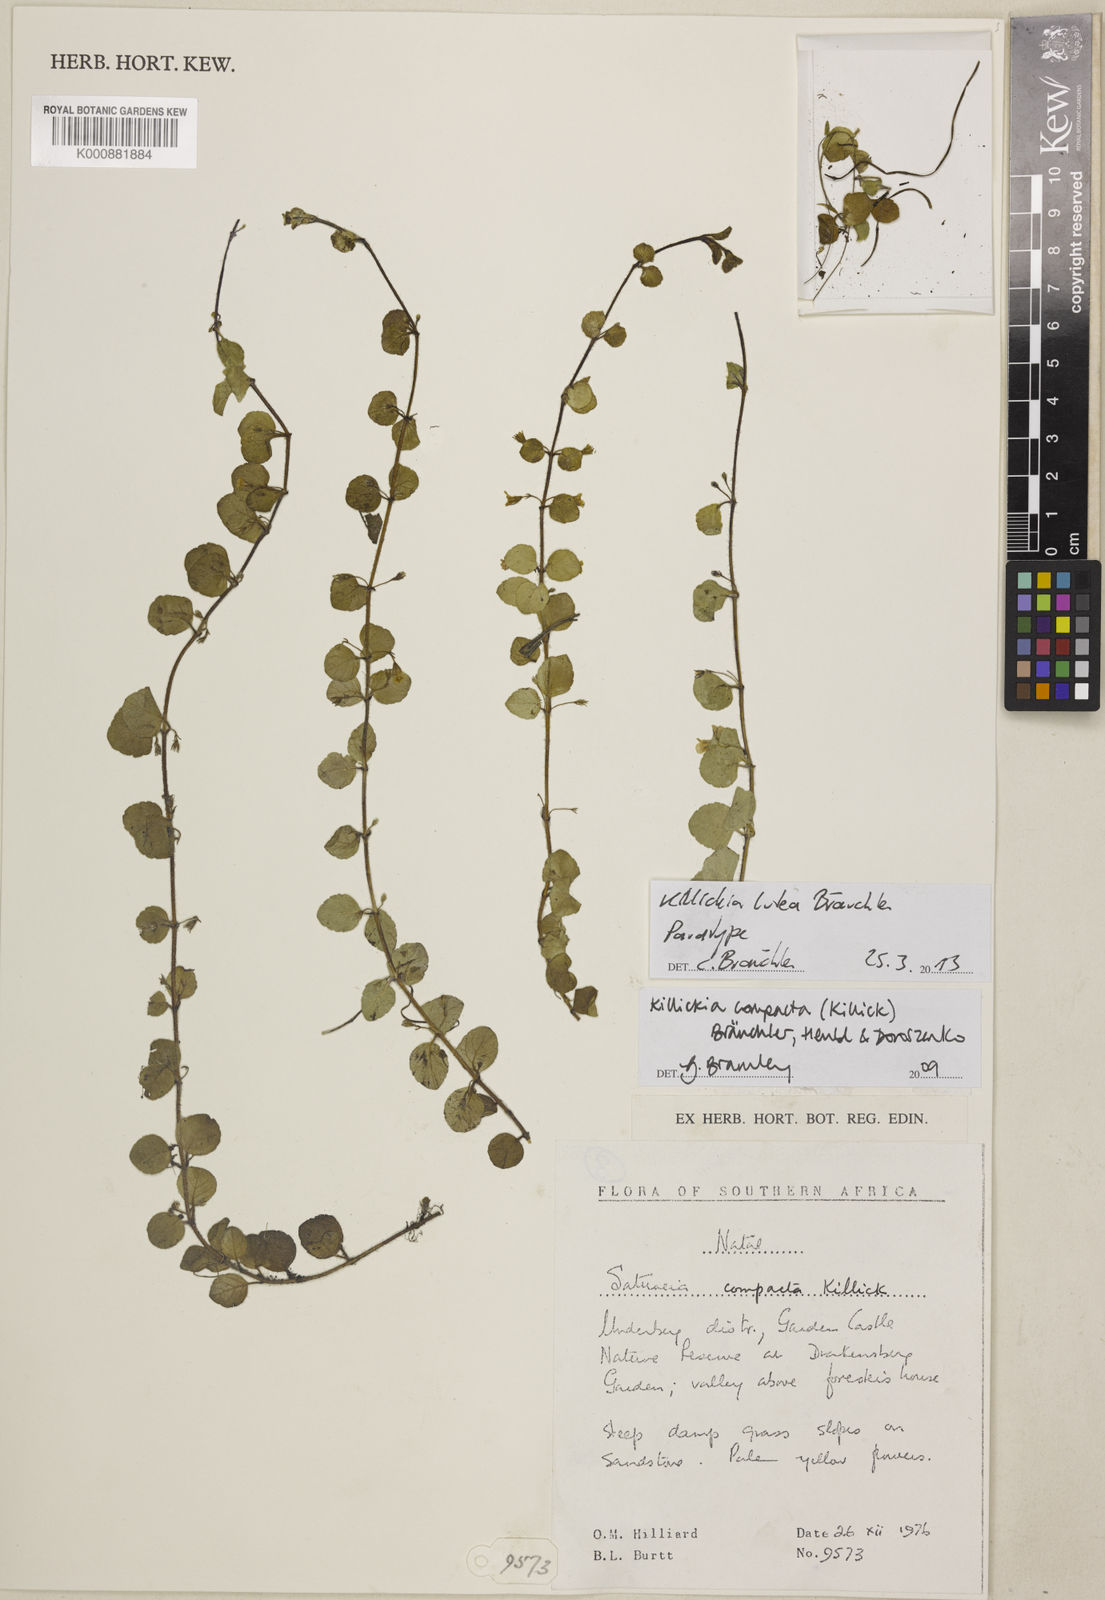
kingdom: Plantae
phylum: Tracheophyta
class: Magnoliopsida
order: Lamiales
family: Lamiaceae
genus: Killickia
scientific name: Killickia
